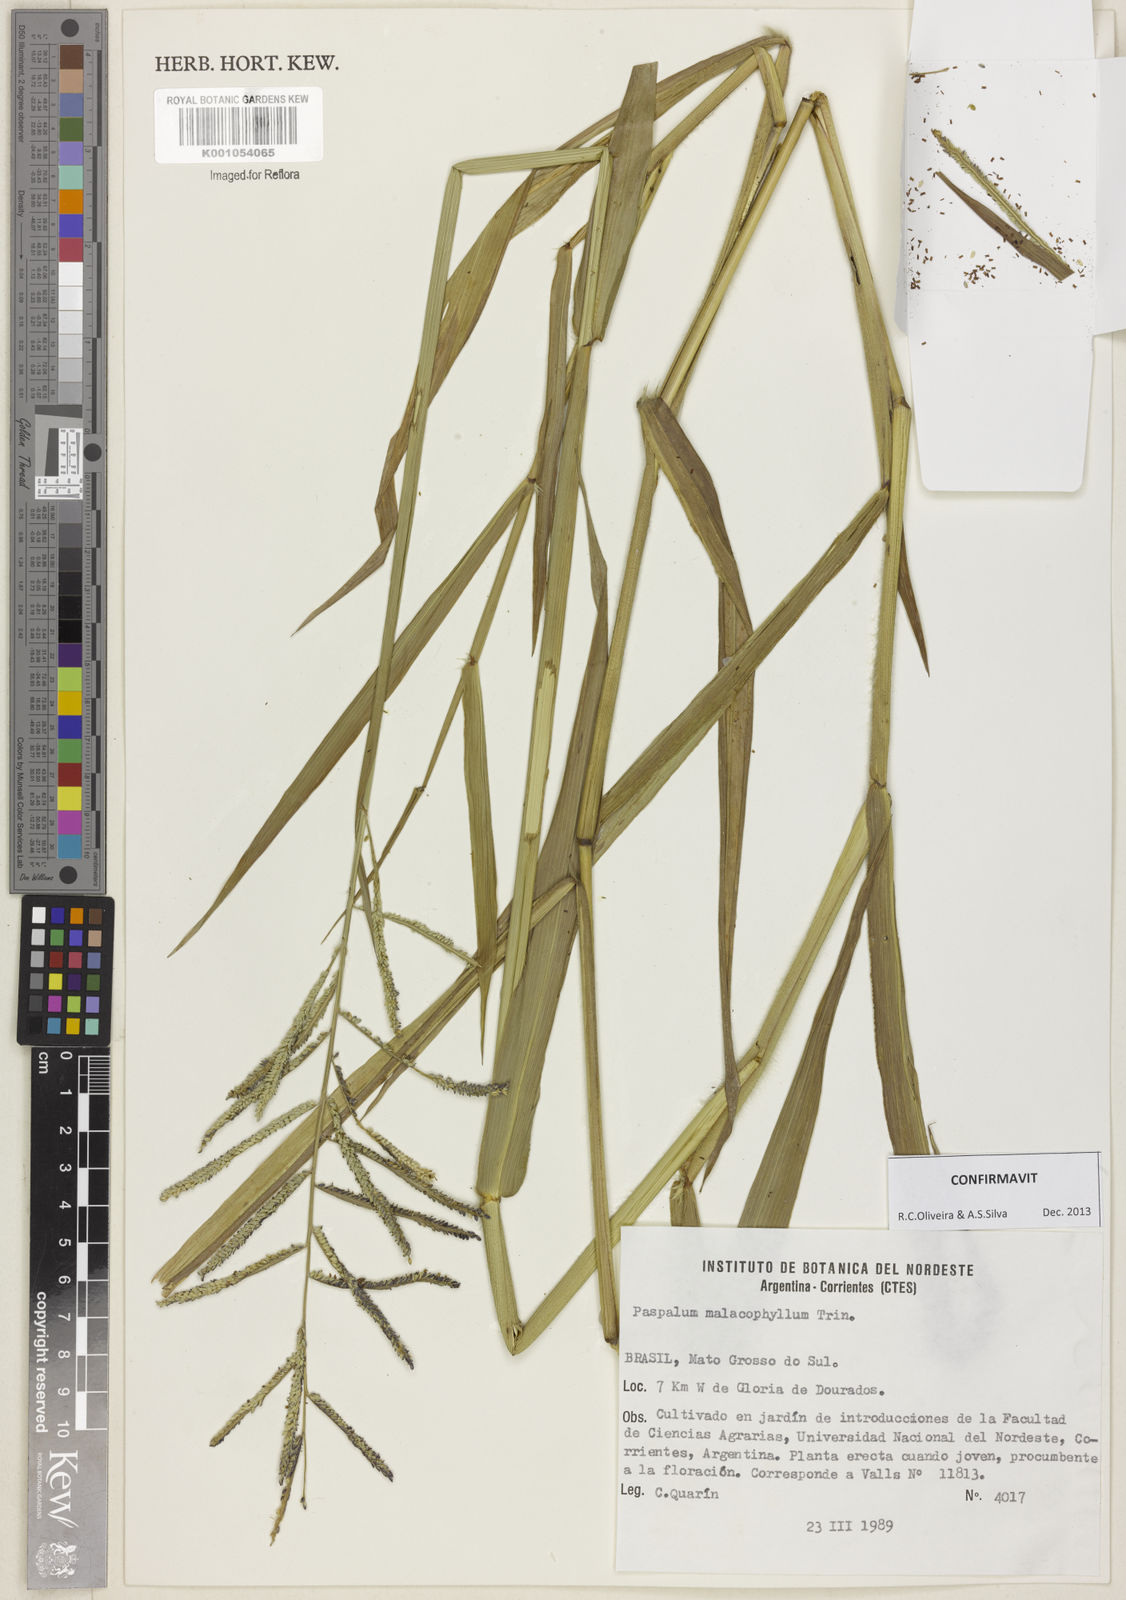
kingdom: Plantae
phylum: Tracheophyta
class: Liliopsida
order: Poales
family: Poaceae
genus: Paspalum
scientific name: Paspalum malacophyllum
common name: Ribbed paspalum
